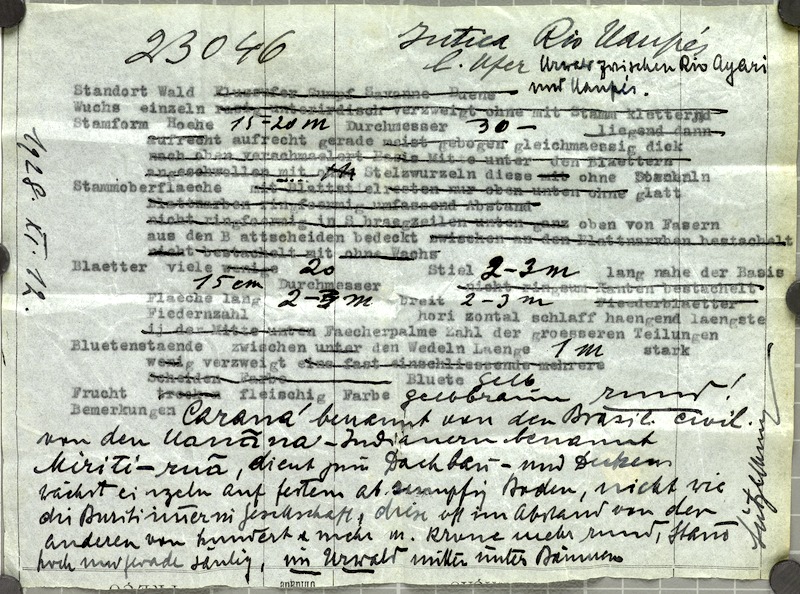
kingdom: Plantae
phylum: Tracheophyta
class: Liliopsida
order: Arecales
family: Arecaceae
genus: Mauritia
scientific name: Mauritia carana
